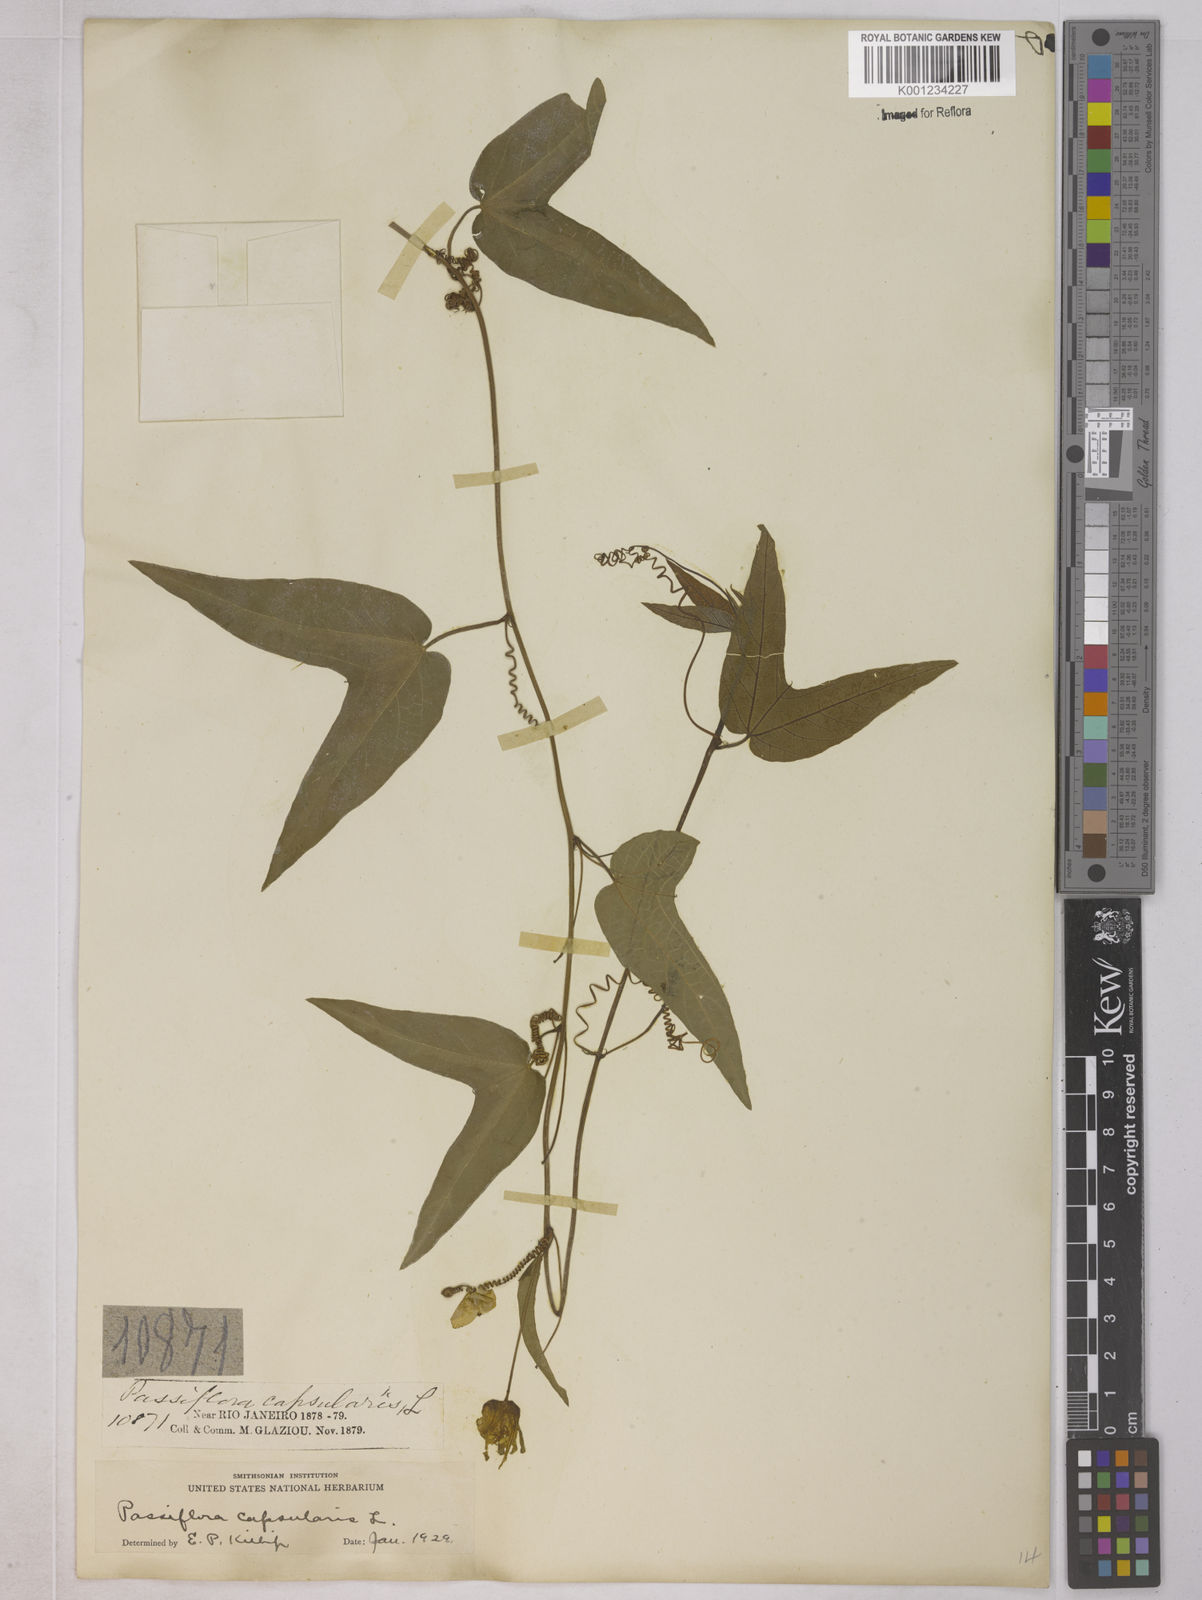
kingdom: Plantae
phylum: Tracheophyta
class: Magnoliopsida
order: Malpighiales
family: Passifloraceae
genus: Passiflora
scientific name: Passiflora capsularis
